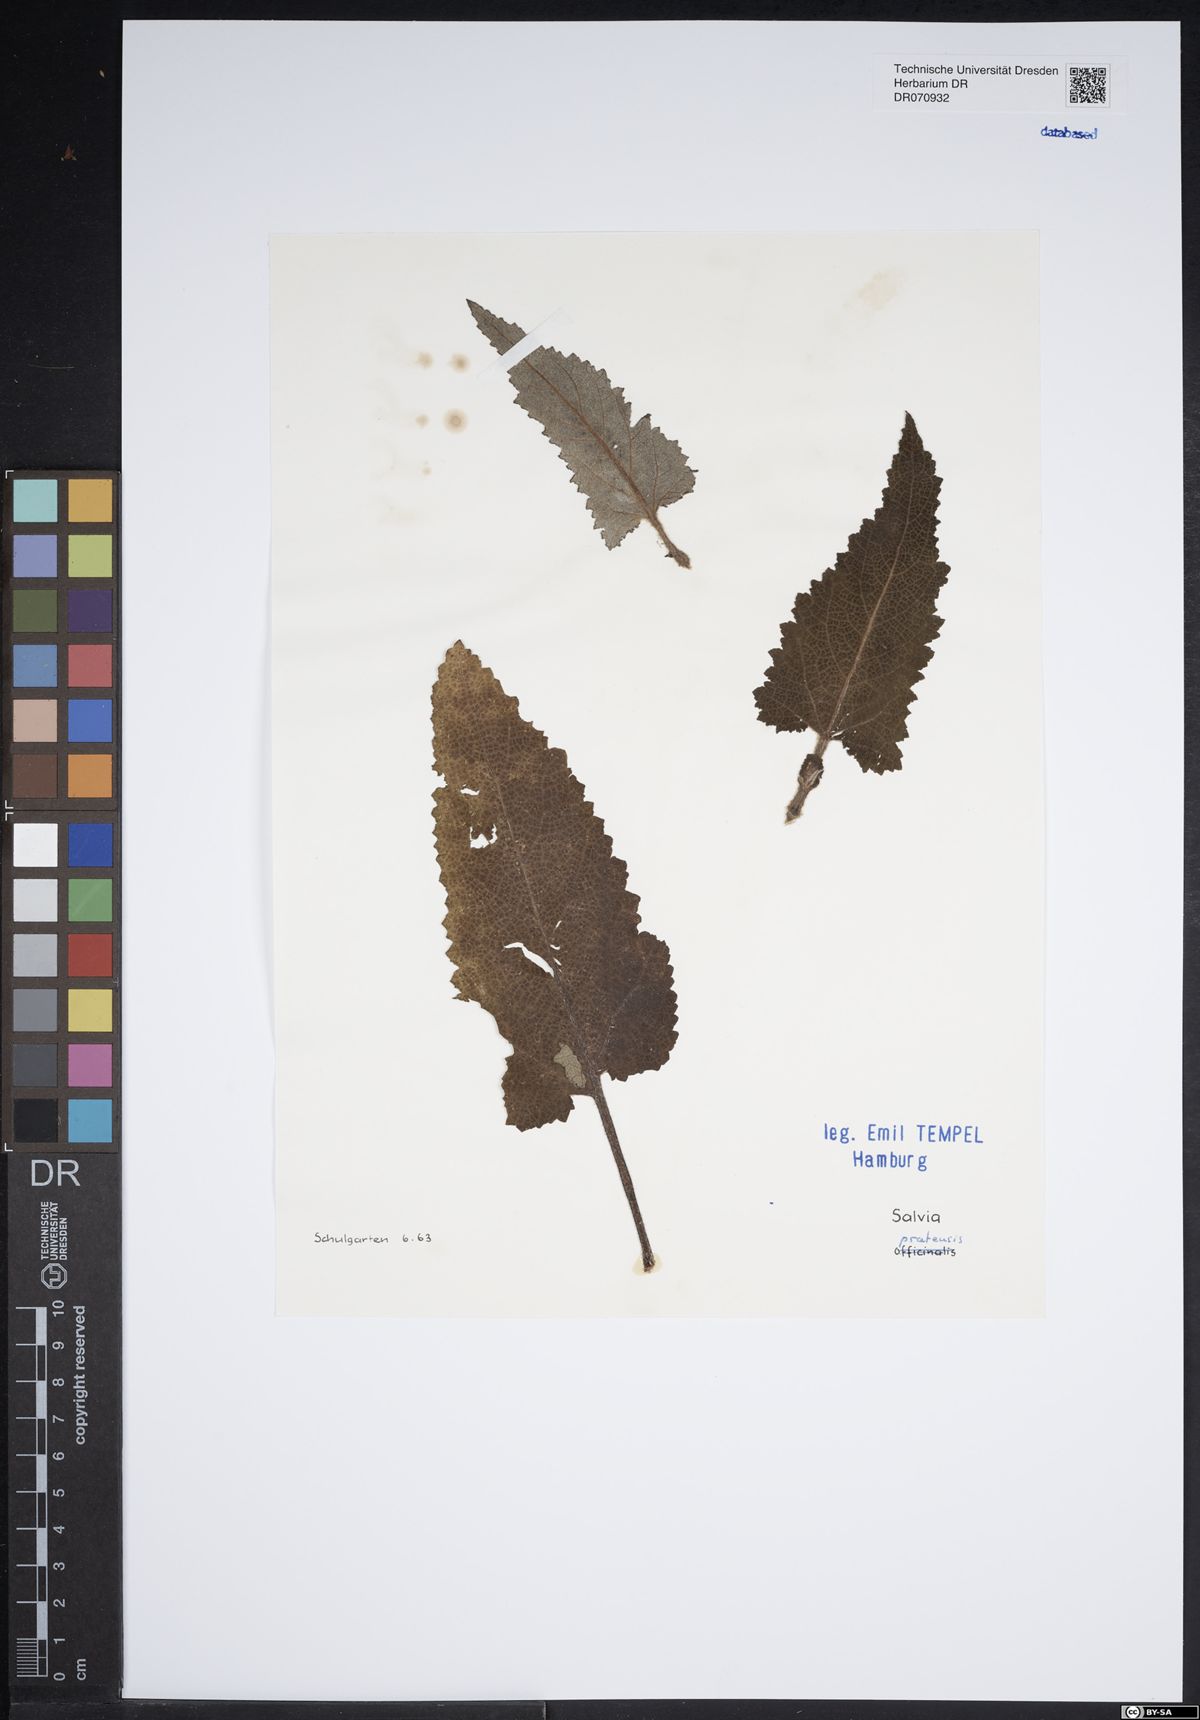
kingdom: Plantae
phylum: Tracheophyta
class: Magnoliopsida
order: Lamiales
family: Lamiaceae
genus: Salvia
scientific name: Salvia pratensis
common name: Meadow sage
